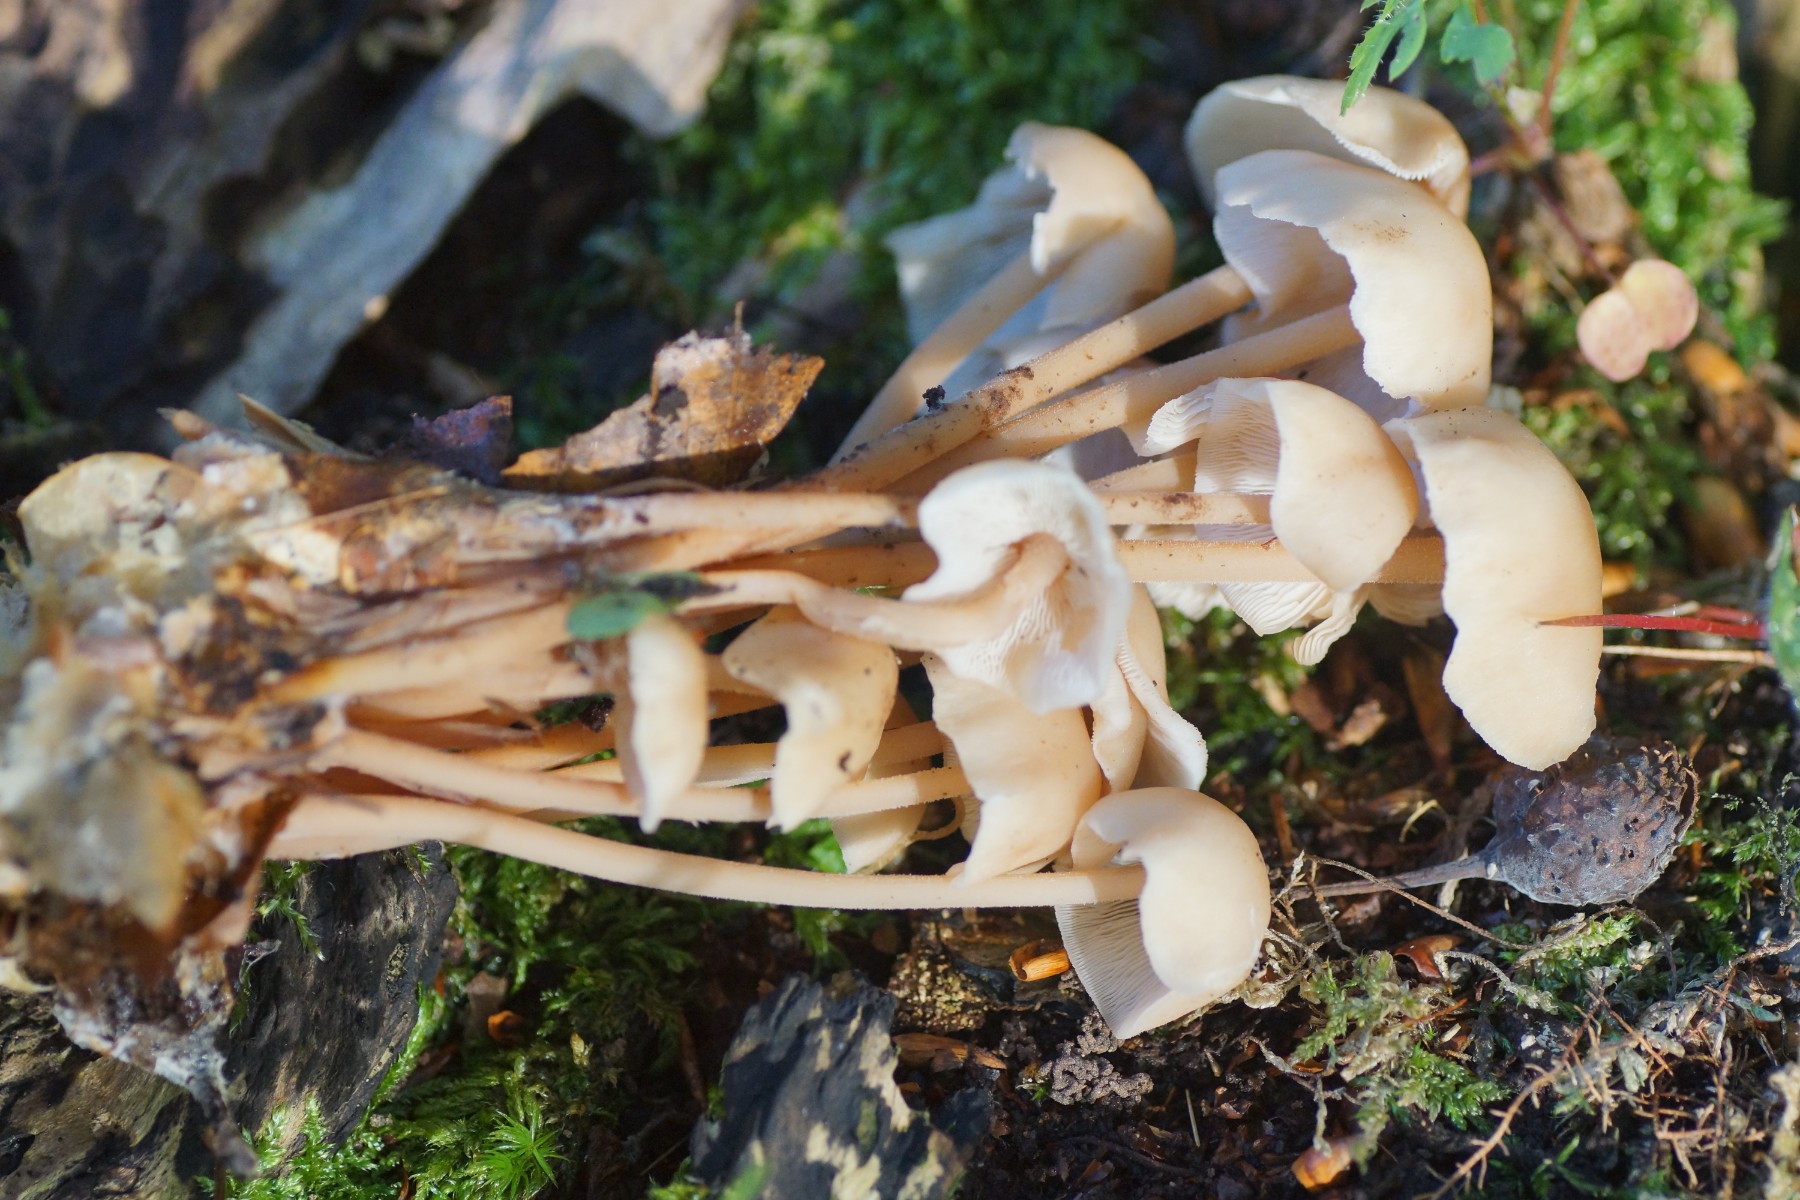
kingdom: Fungi
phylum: Basidiomycota
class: Agaricomycetes
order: Agaricales
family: Omphalotaceae
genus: Collybiopsis
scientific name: Collybiopsis confluens
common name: knippe-fladhat
